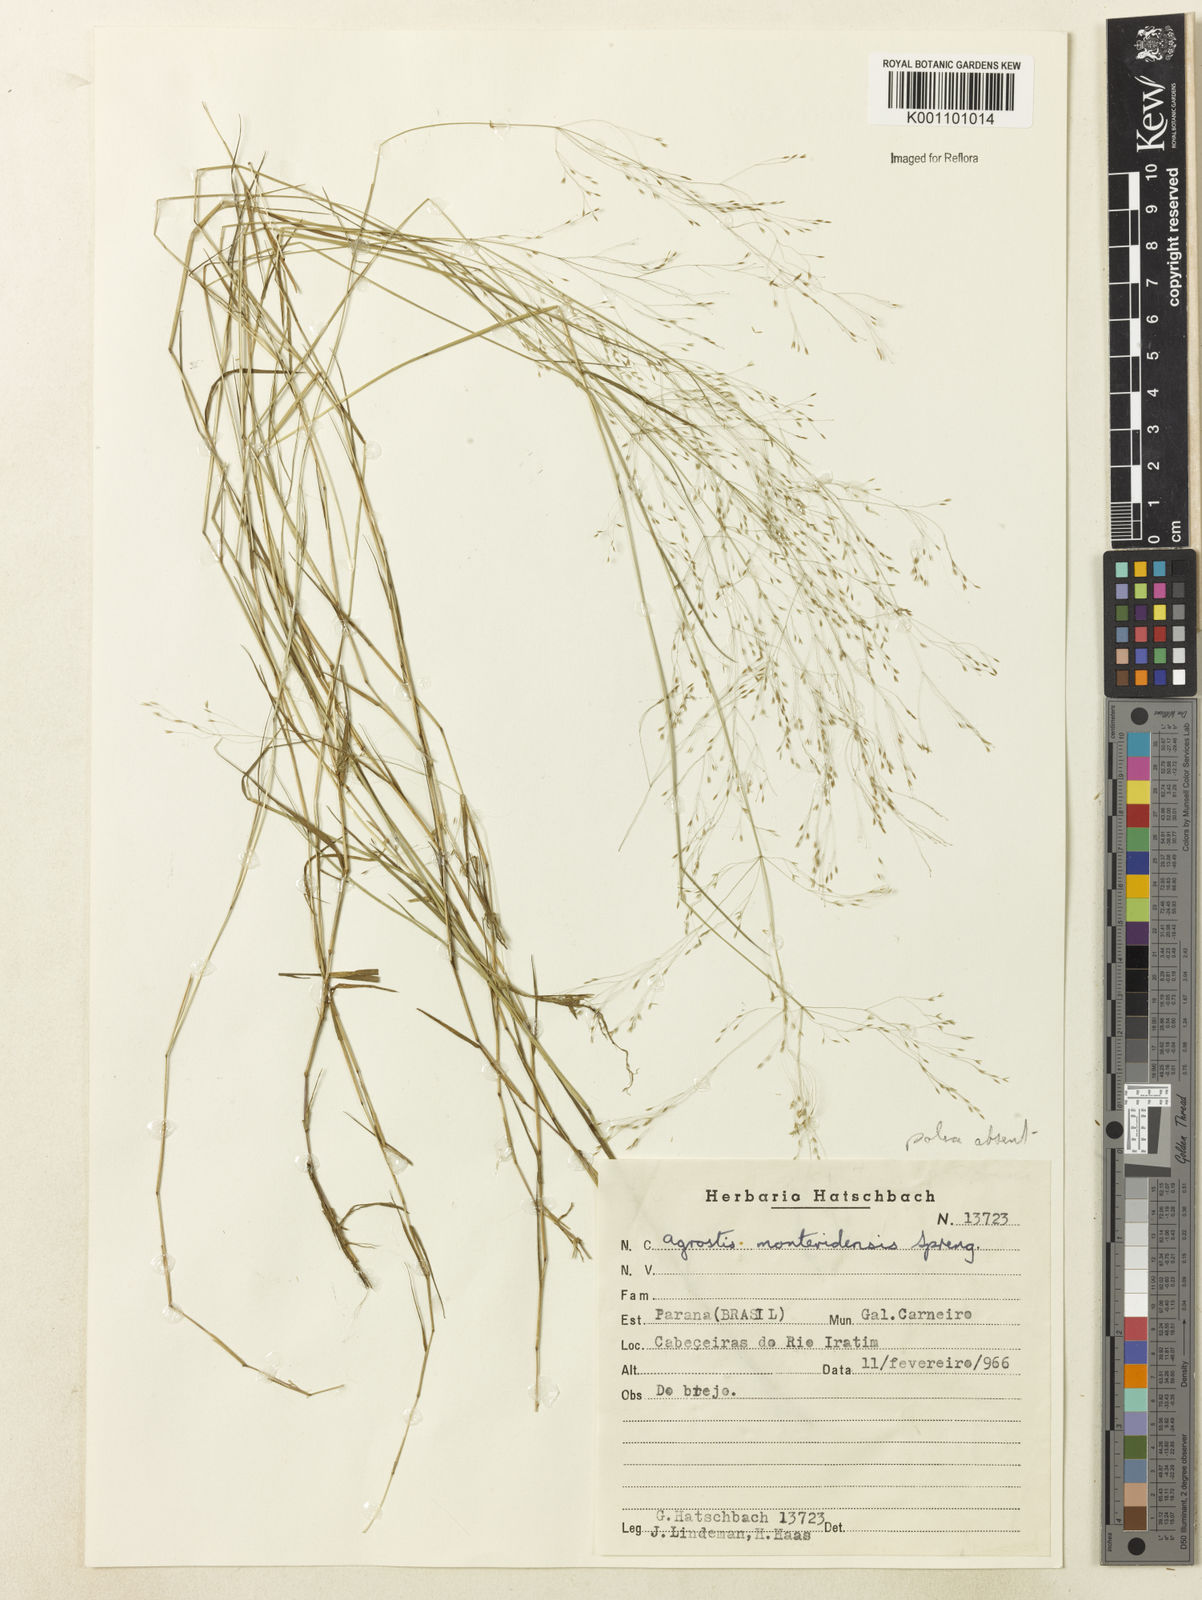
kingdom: Plantae
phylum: Tracheophyta
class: Liliopsida
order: Poales
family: Poaceae
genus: Agrostis
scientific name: Agrostis
